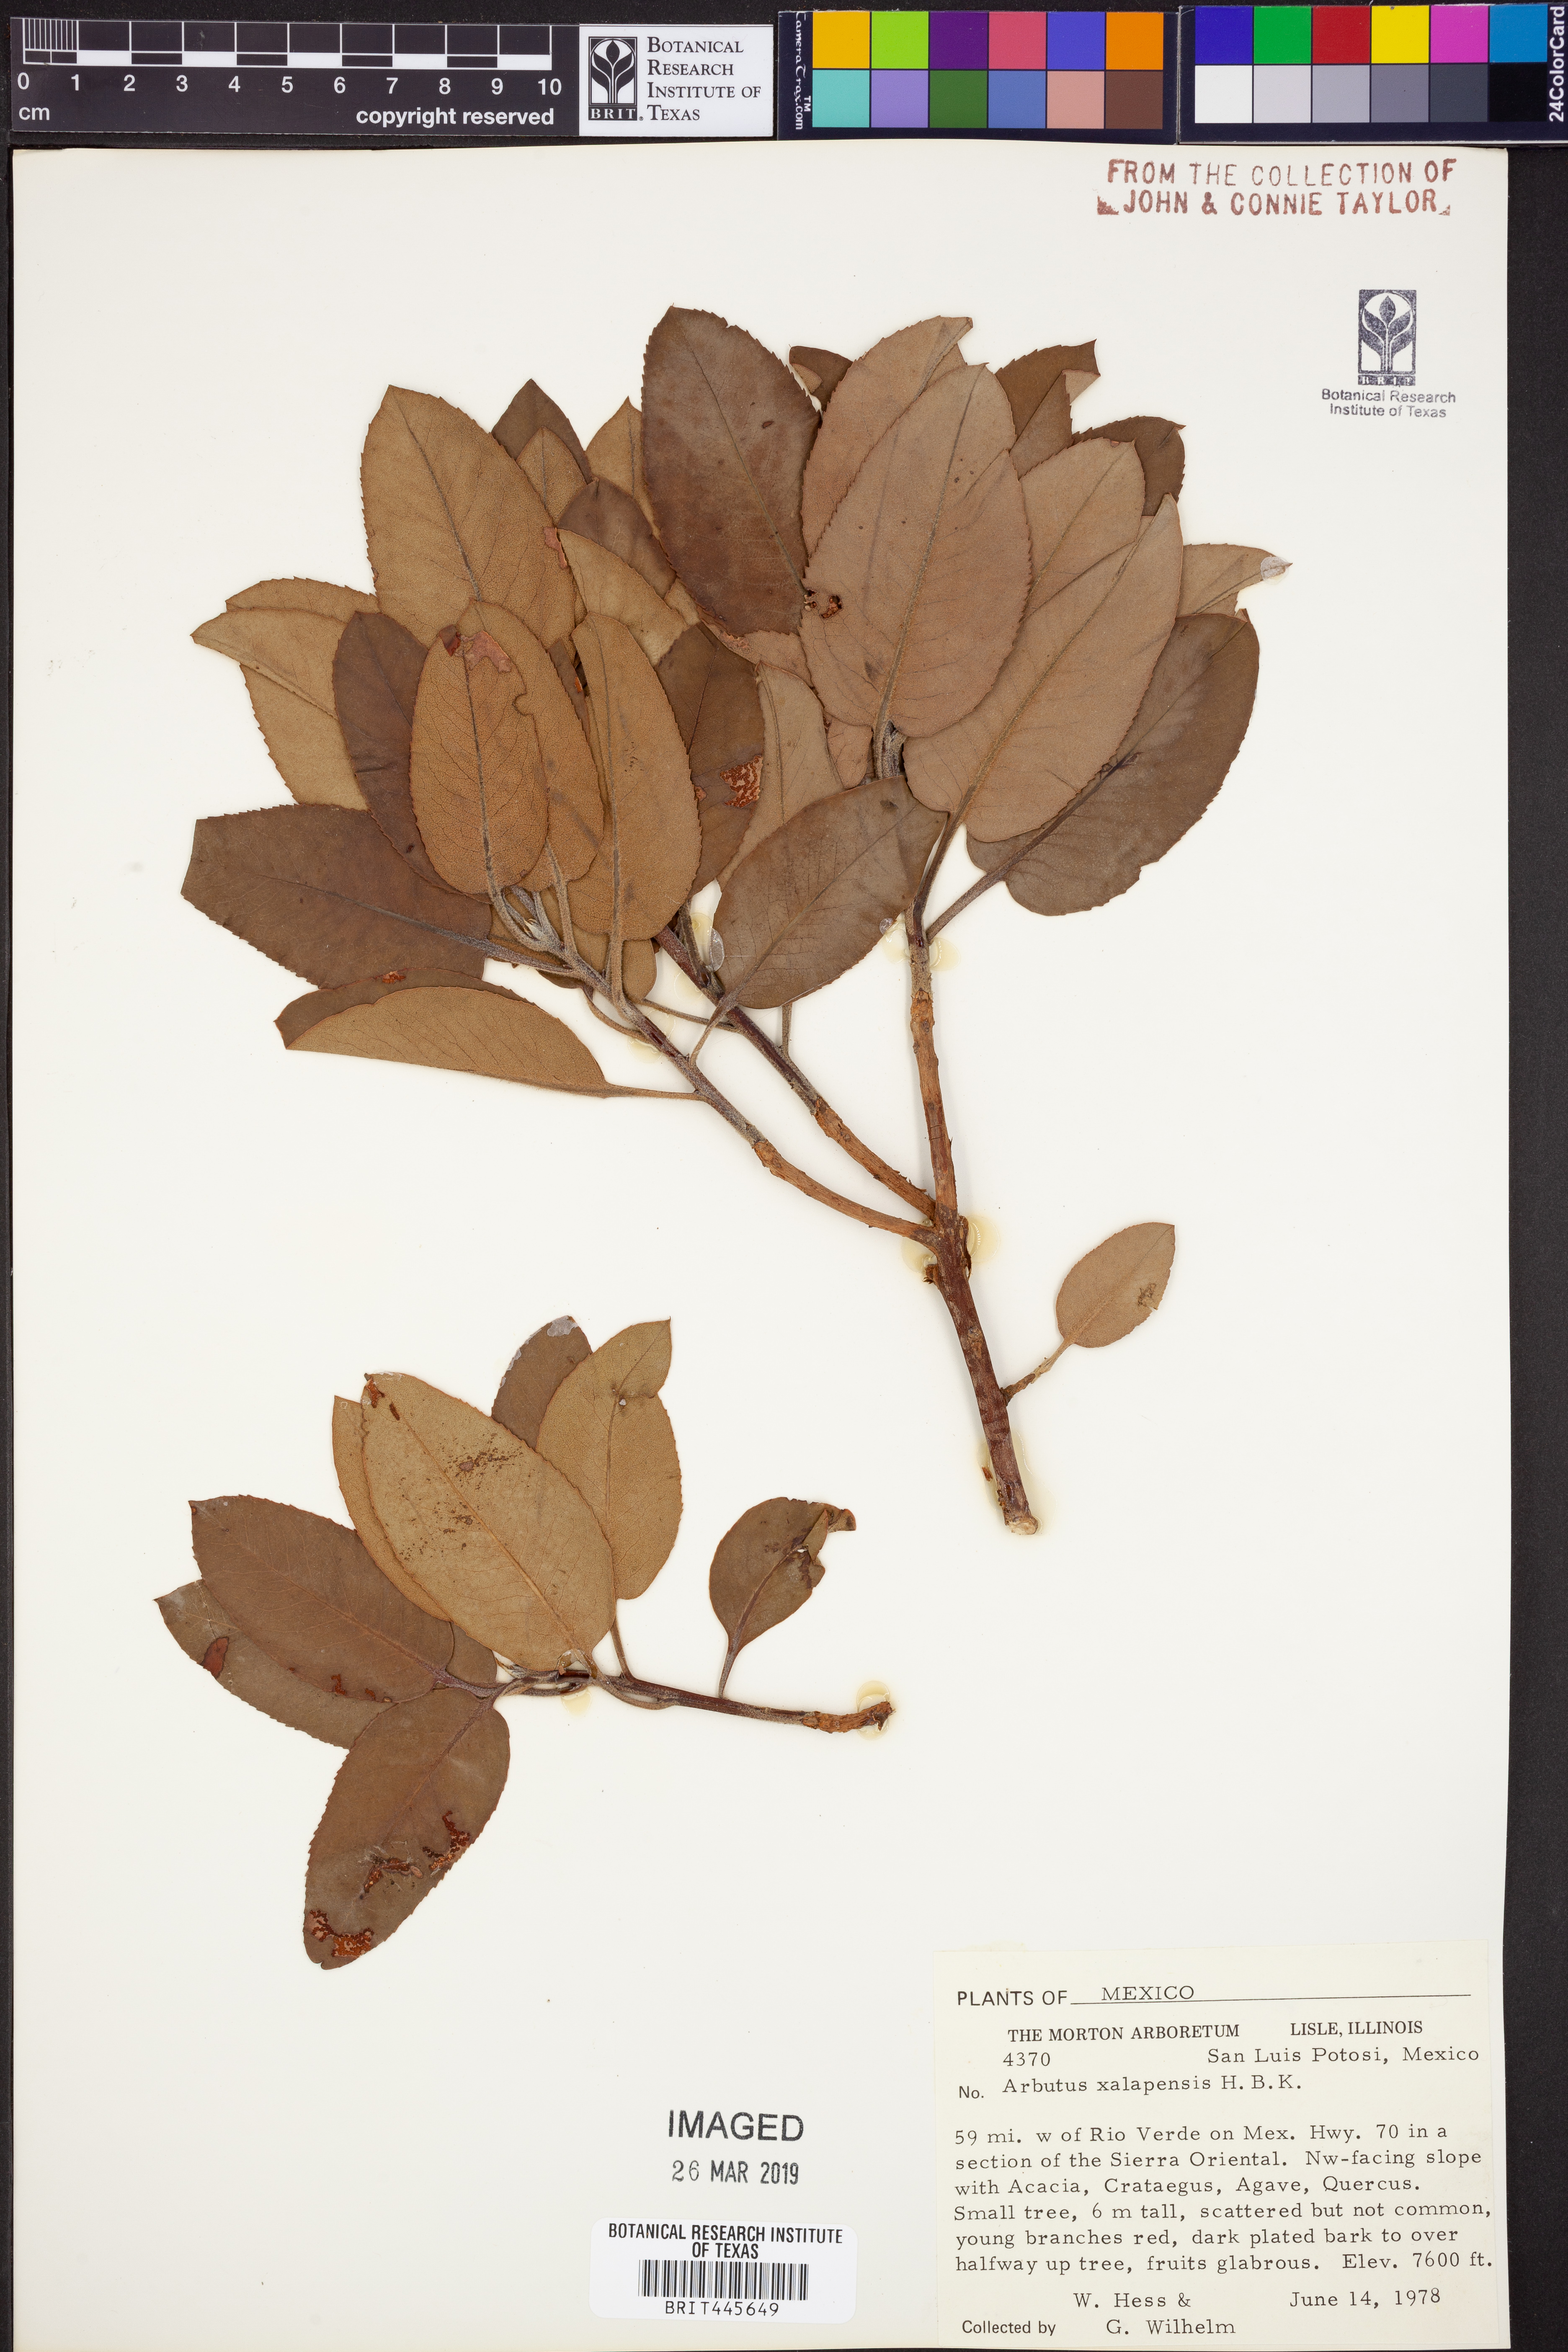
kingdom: Plantae
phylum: Tracheophyta
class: Magnoliopsida
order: Ericales
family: Ericaceae
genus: Arbutus
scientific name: Arbutus xalapensis
